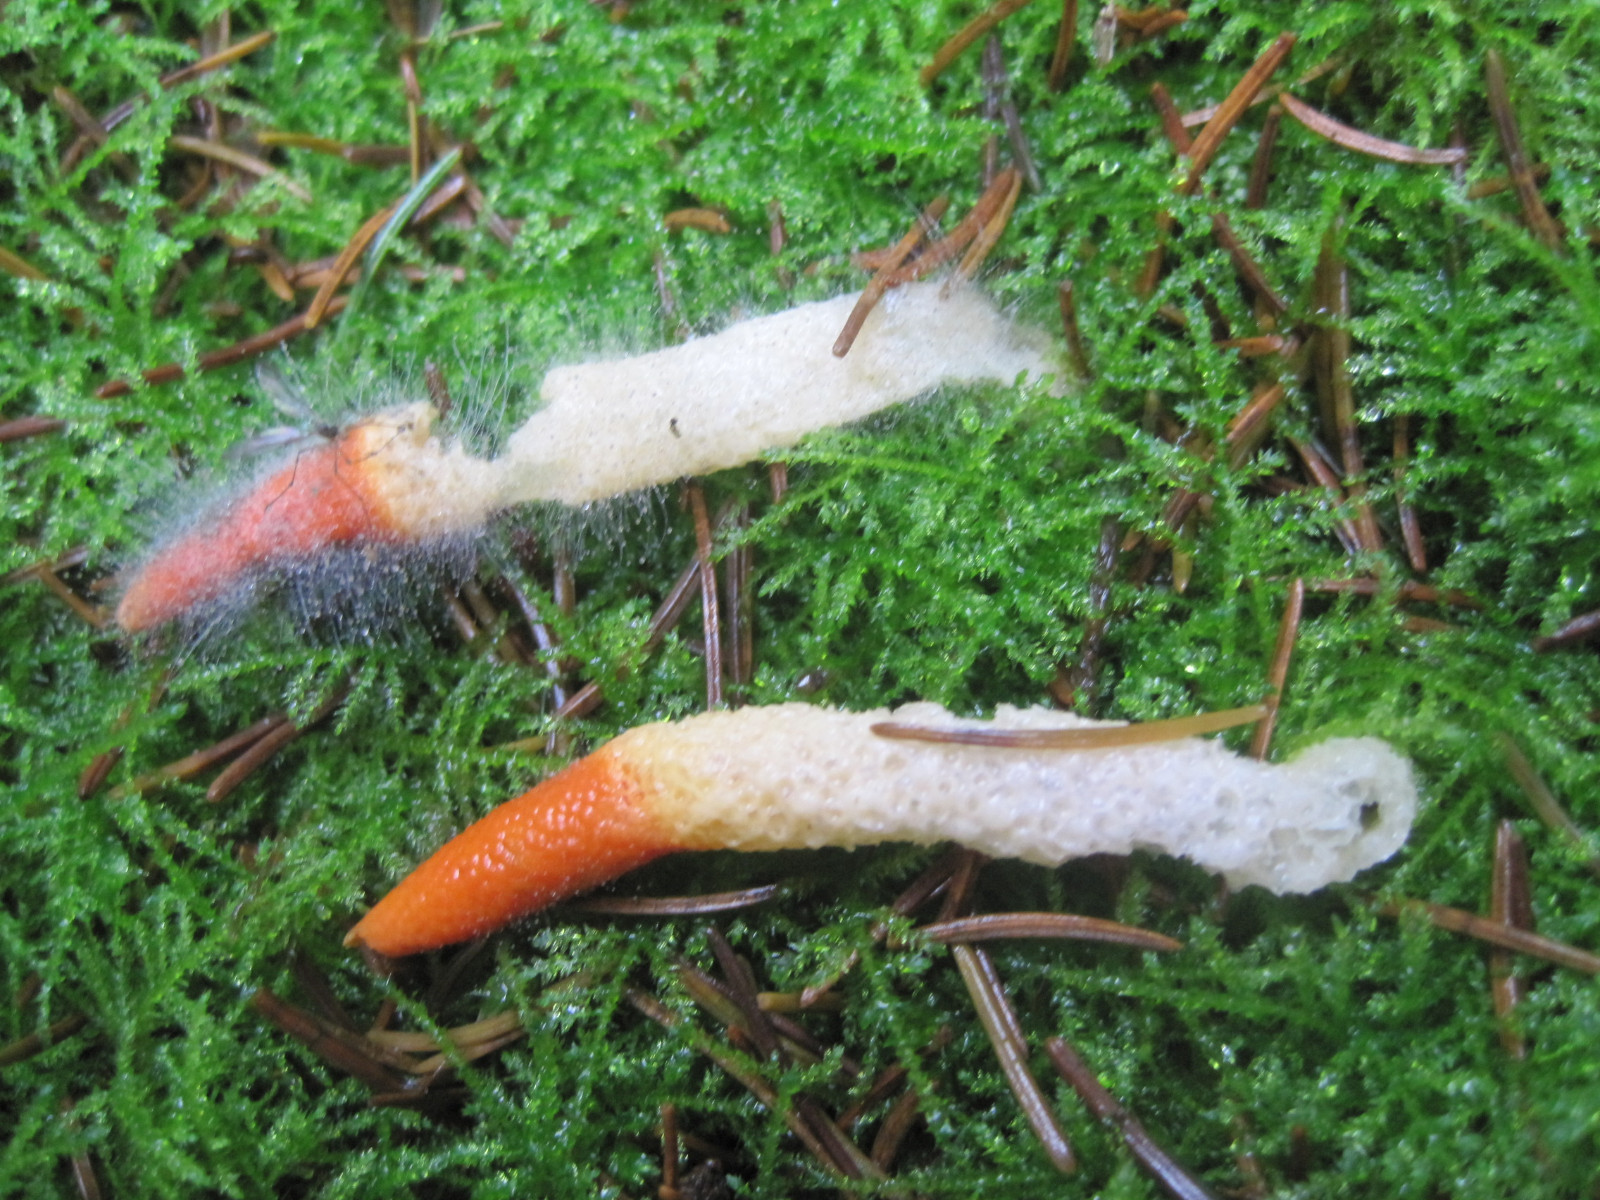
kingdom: Fungi
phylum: Basidiomycota
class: Agaricomycetes
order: Phallales
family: Phallaceae
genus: Mutinus
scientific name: Mutinus caninus
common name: hunde-stinksvamp
